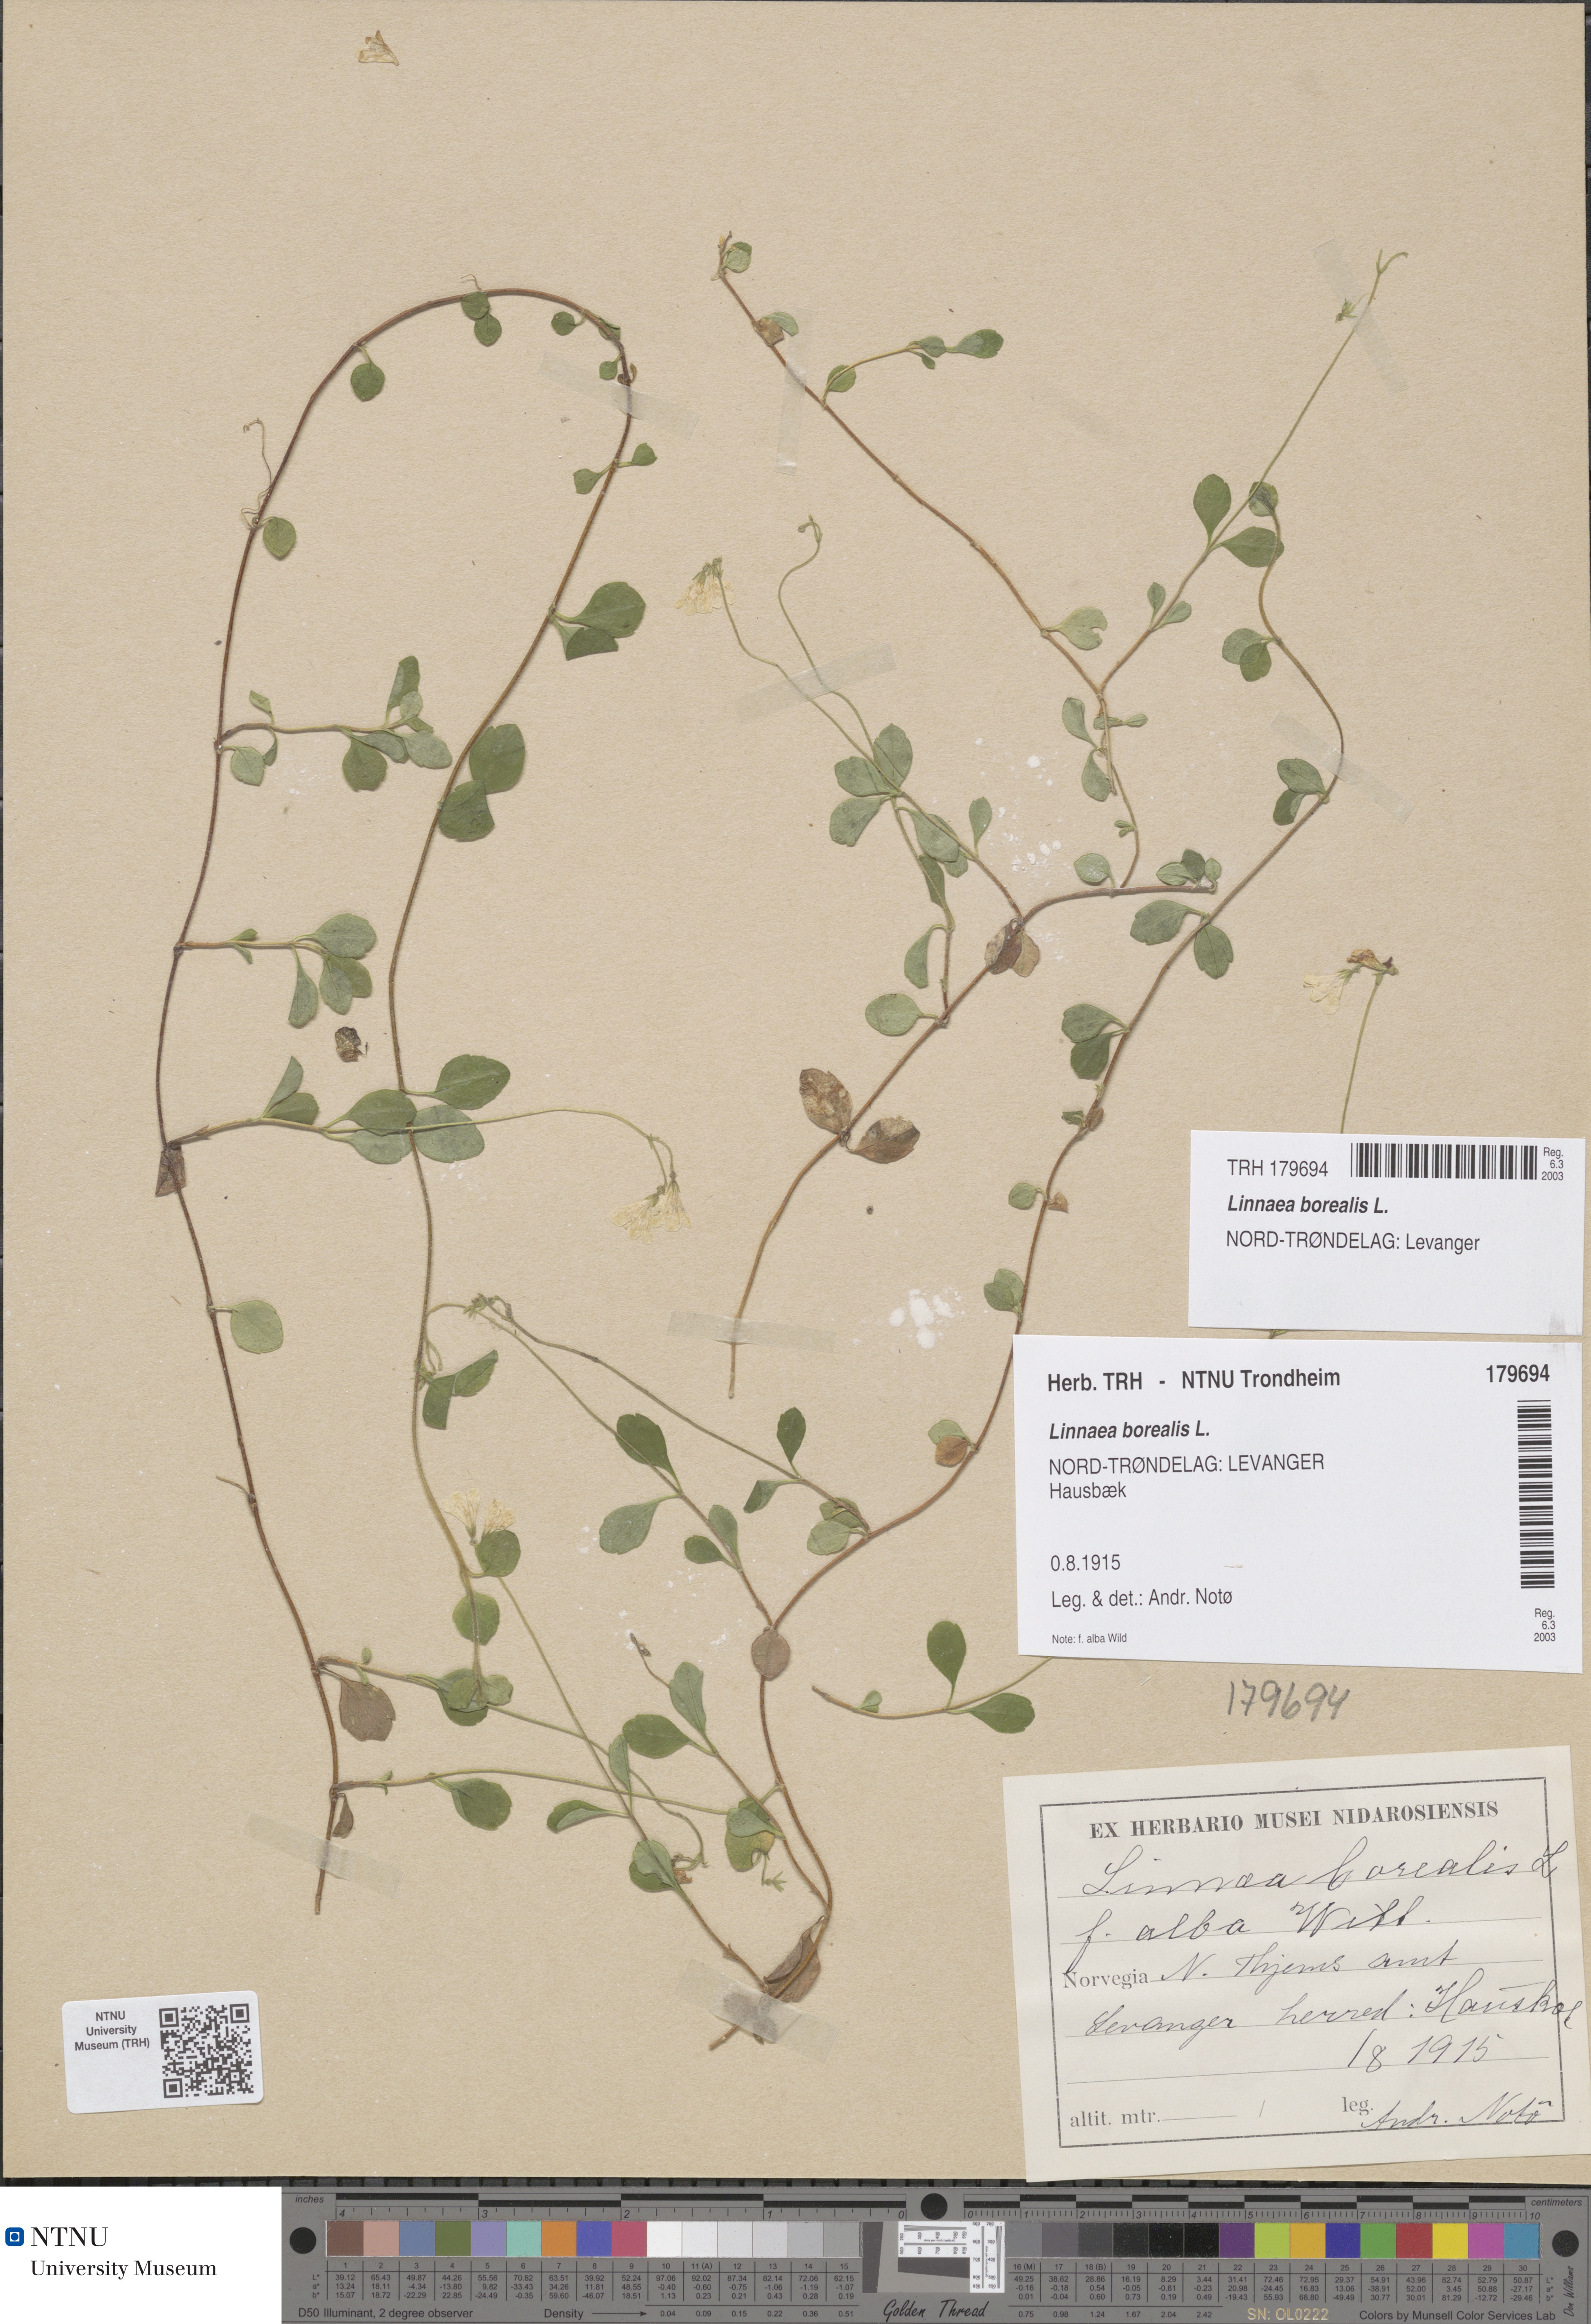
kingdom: Plantae
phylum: Tracheophyta
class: Magnoliopsida
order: Dipsacales
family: Caprifoliaceae
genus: Linnaea
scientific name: Linnaea borealis
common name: Twinflower
